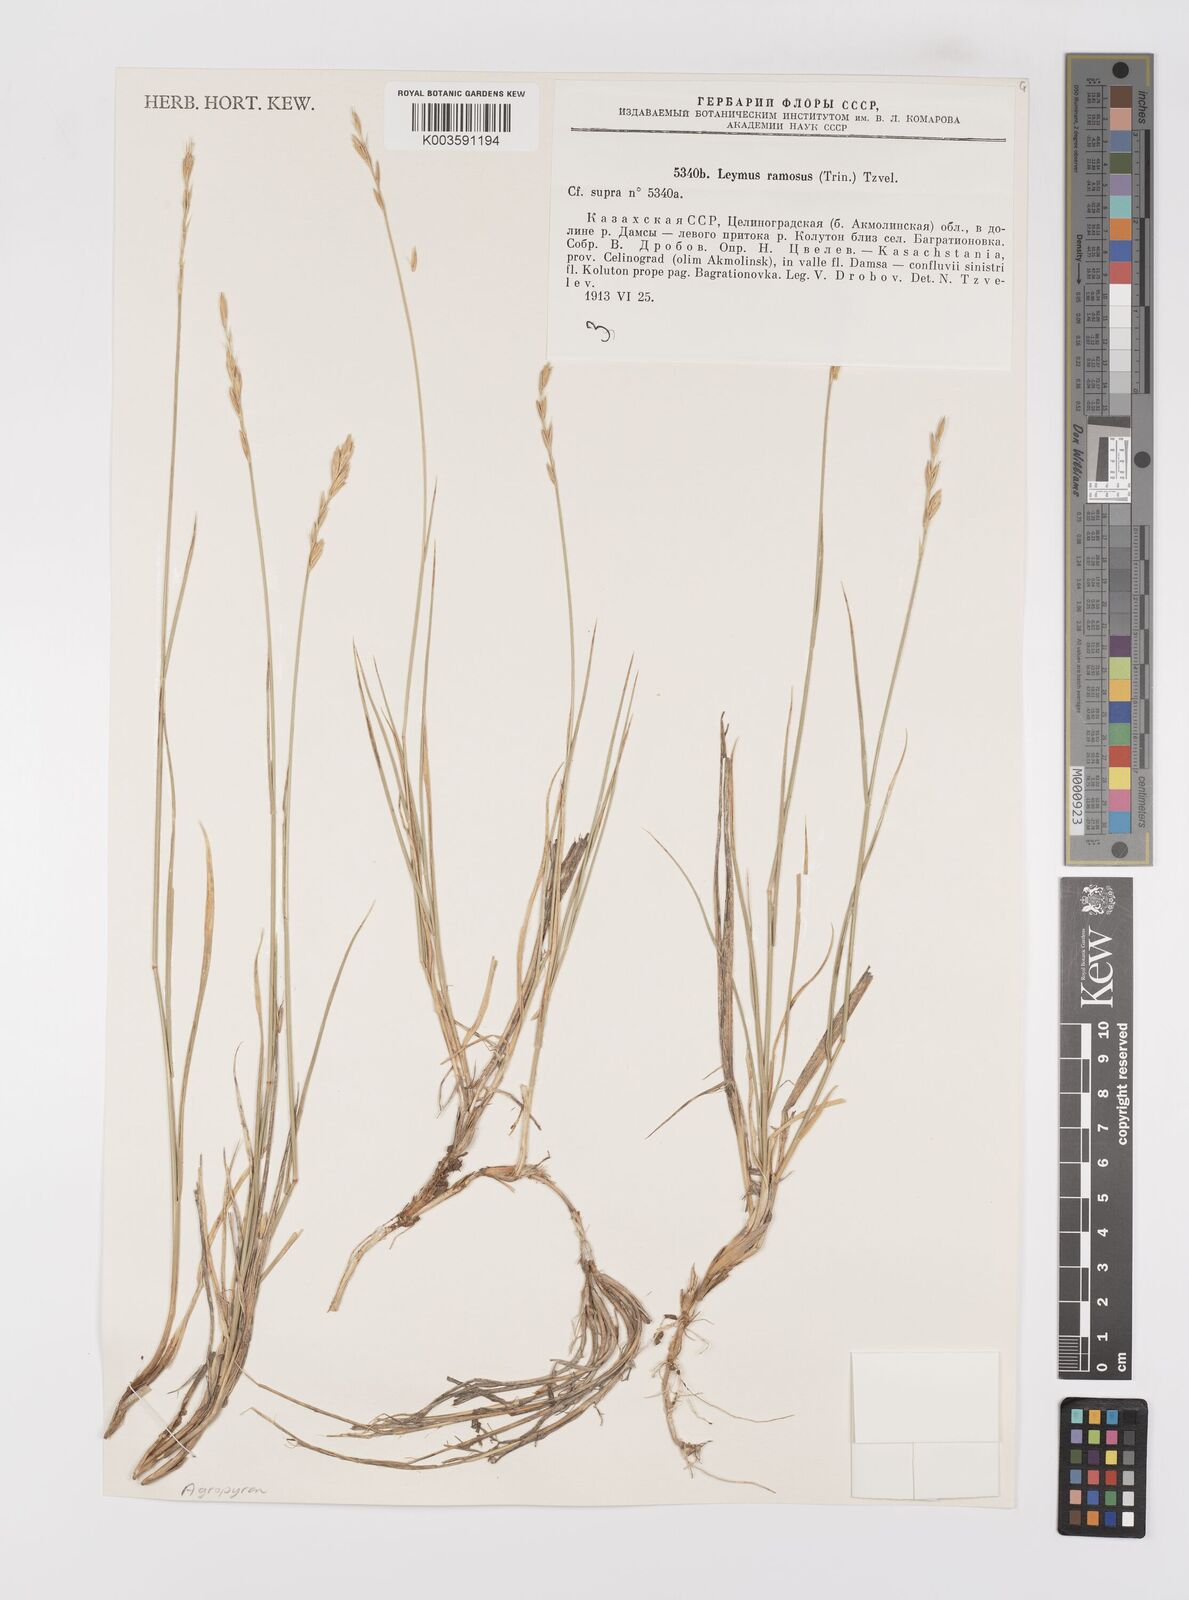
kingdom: Plantae
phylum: Tracheophyta
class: Liliopsida
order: Poales
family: Poaceae
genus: Leymus
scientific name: Leymus ramosus
